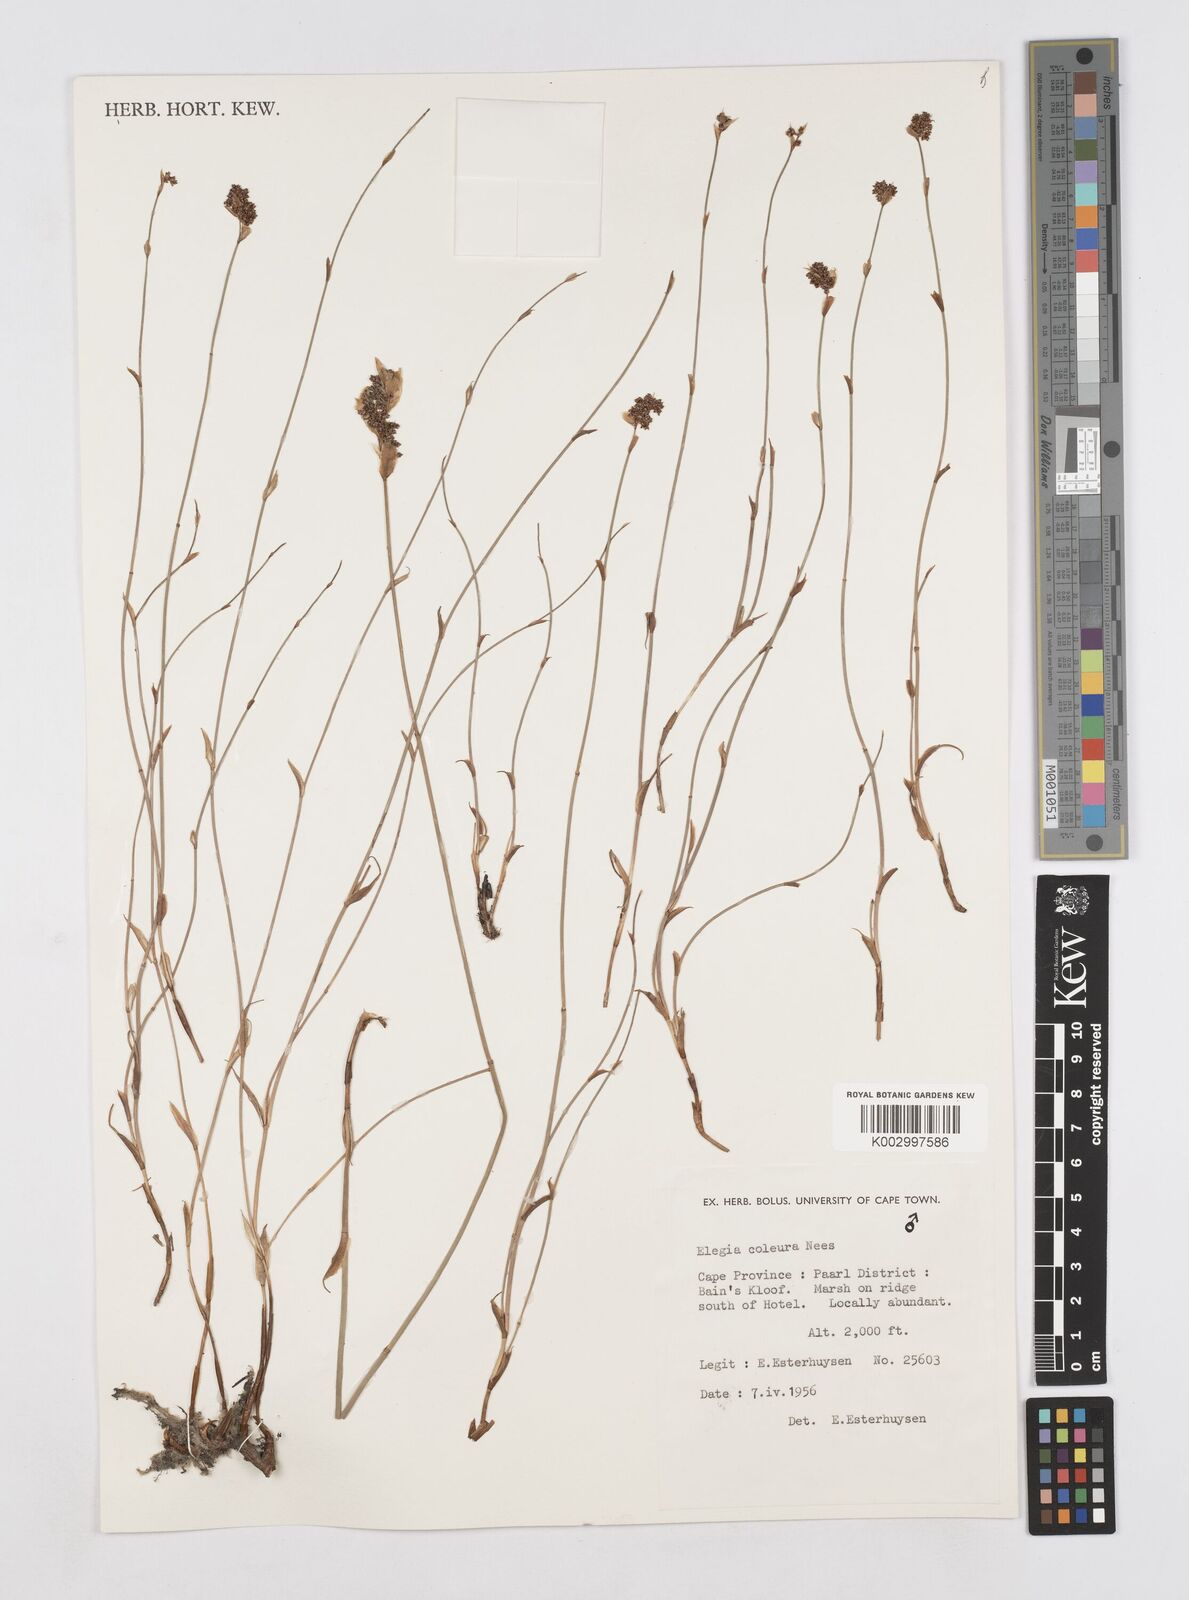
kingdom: Plantae
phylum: Tracheophyta
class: Liliopsida
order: Poales
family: Restionaceae
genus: Elegia
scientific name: Elegia coleura
